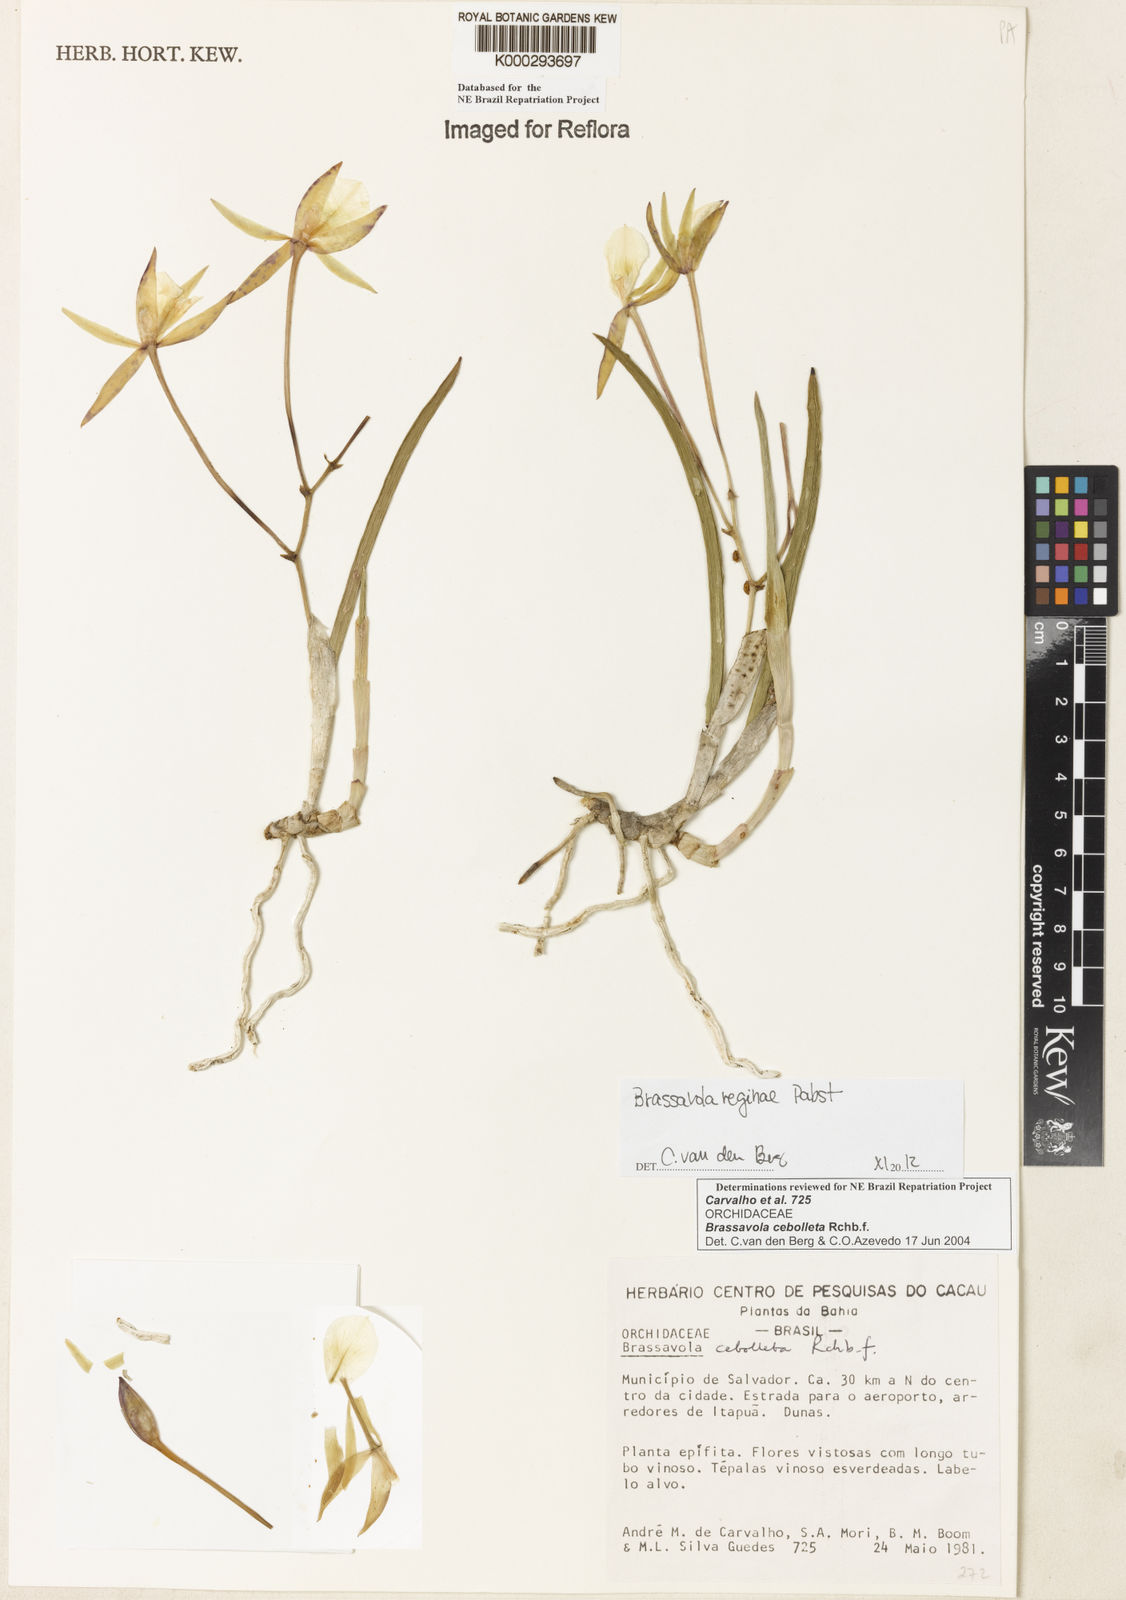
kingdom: Plantae
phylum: Tracheophyta
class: Liliopsida
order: Asparagales
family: Orchidaceae
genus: Brassavola
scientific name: Brassavola ceboletta
